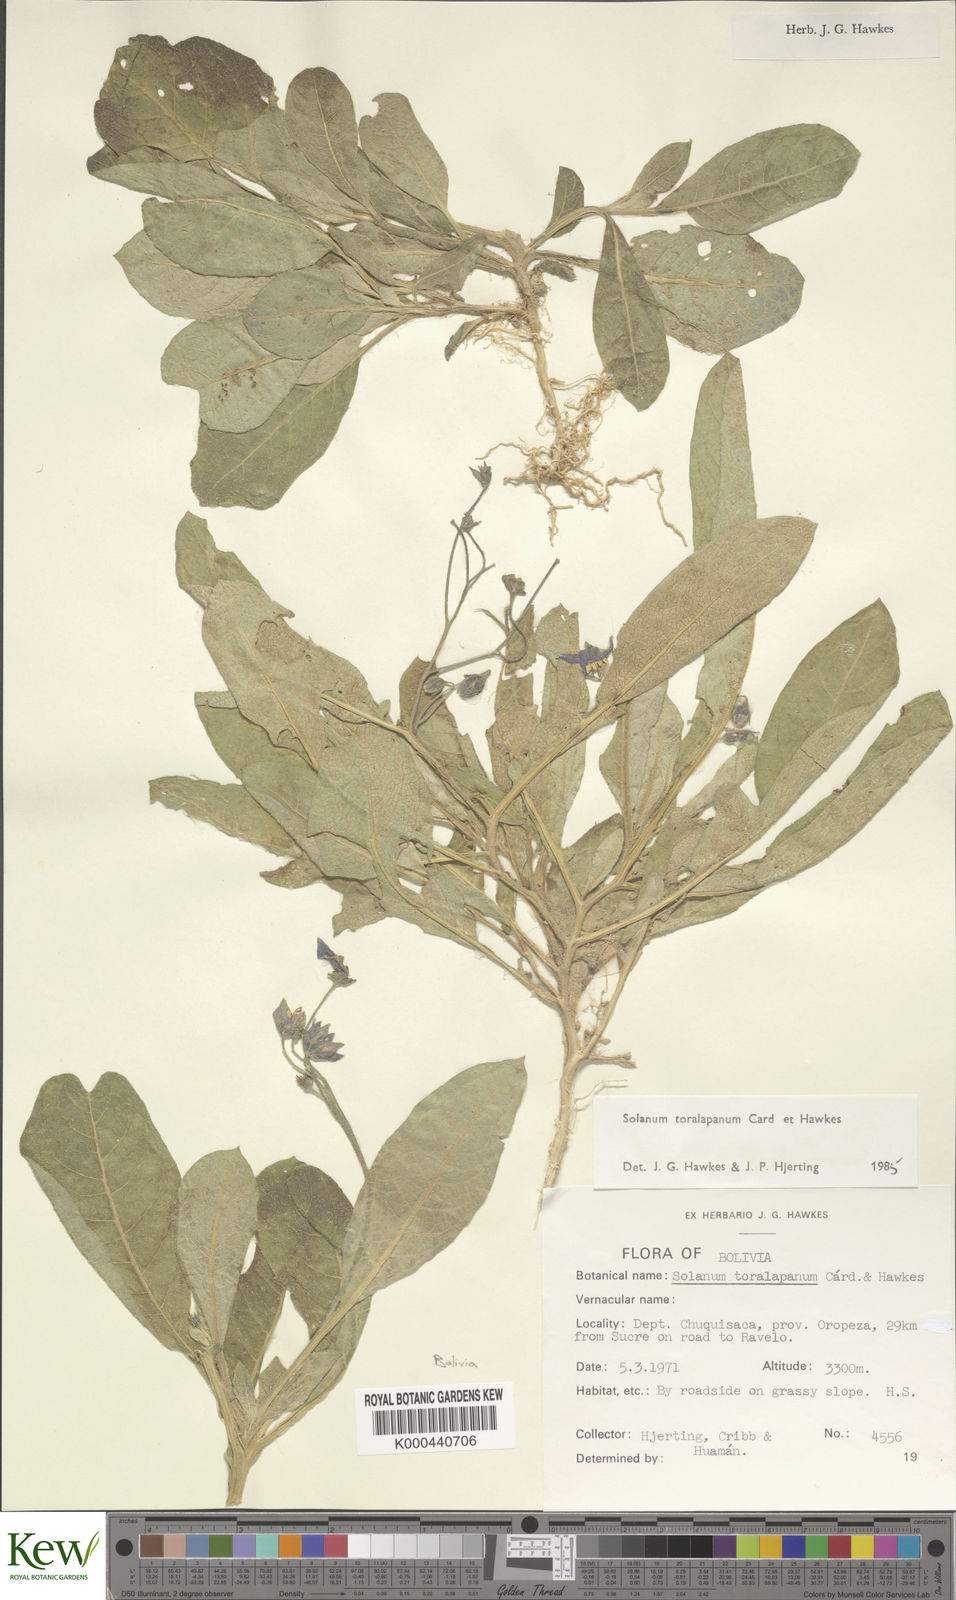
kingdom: Plantae
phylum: Tracheophyta
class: Magnoliopsida
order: Solanales
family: Solanaceae
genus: Solanum
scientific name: Solanum boliviense
